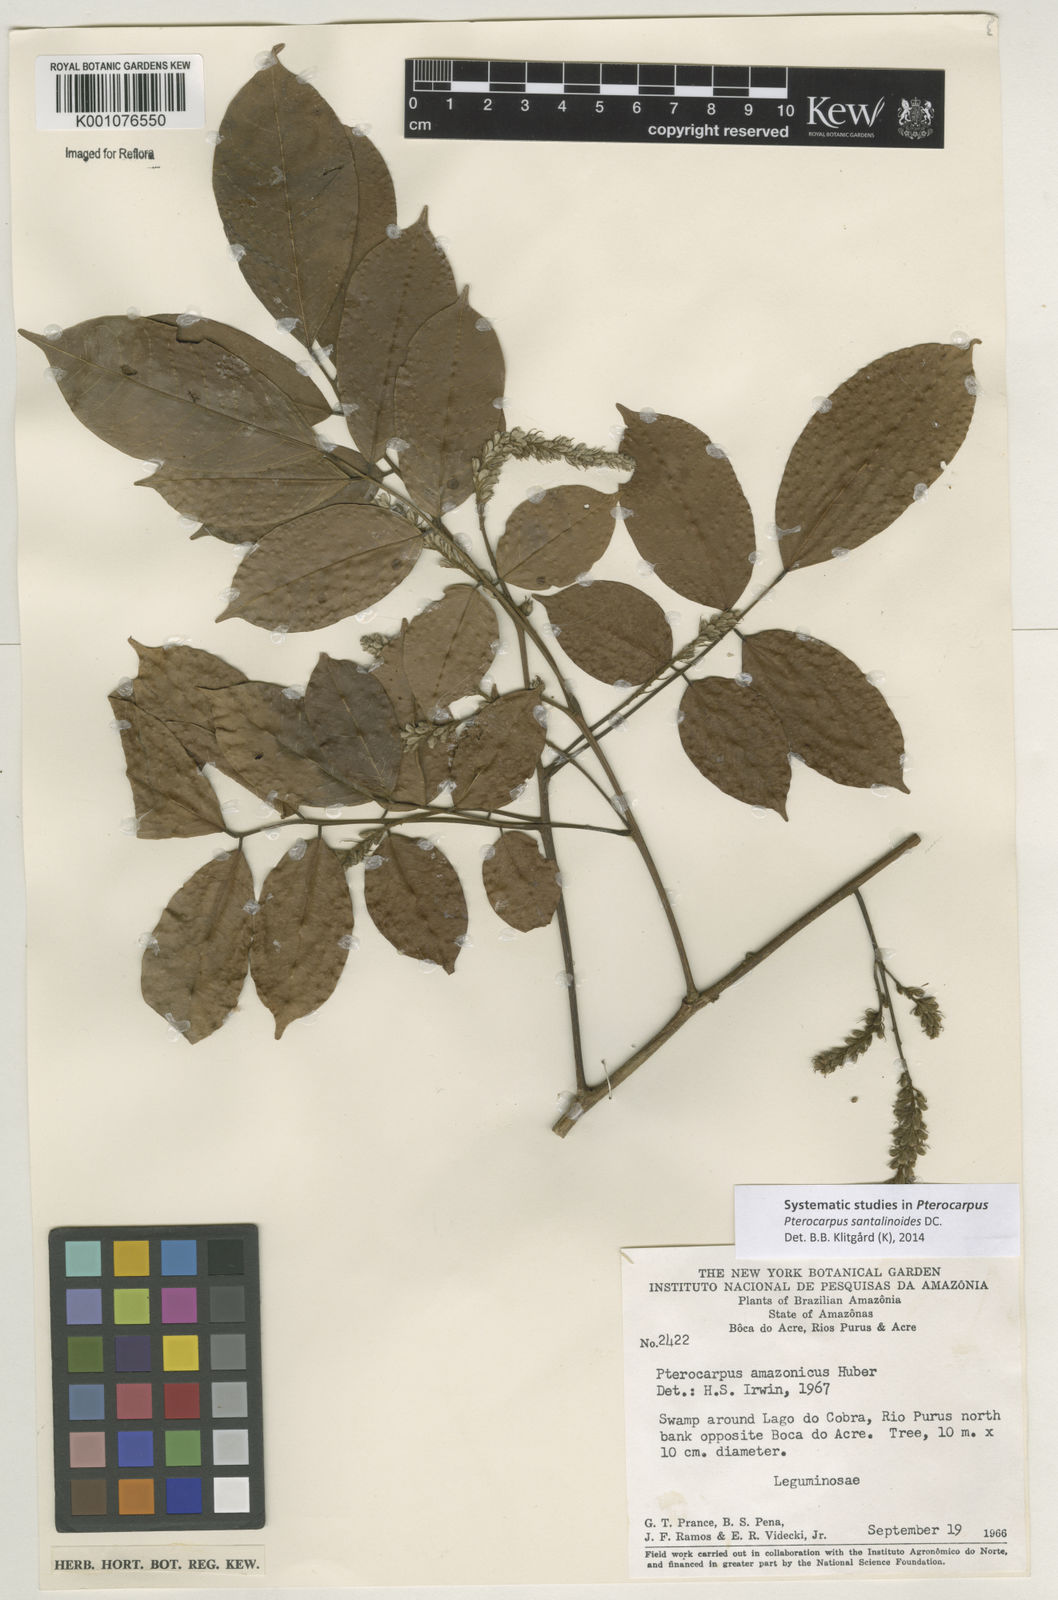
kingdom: Plantae
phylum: Tracheophyta
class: Magnoliopsida
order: Fabales
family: Fabaceae
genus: Pterocarpus
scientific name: Pterocarpus santalinoides
